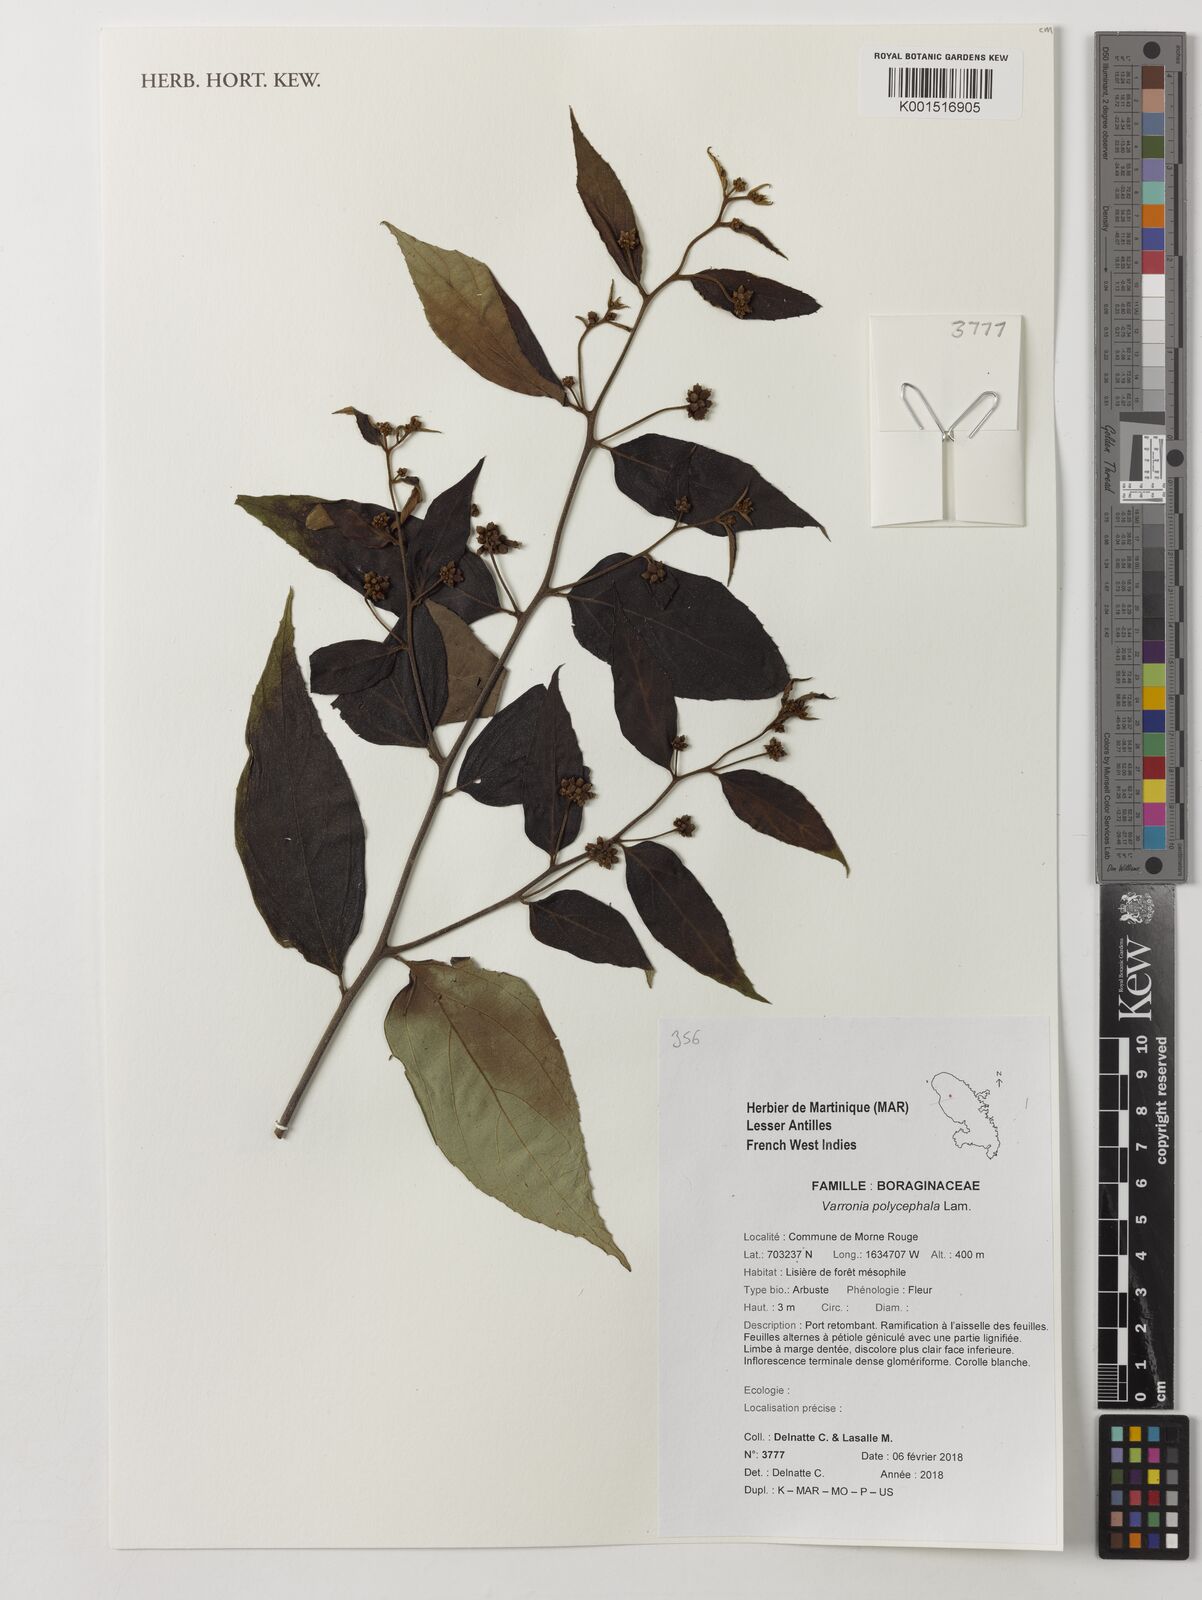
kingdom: Plantae
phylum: Tracheophyta
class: Magnoliopsida
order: Boraginales
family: Cordiaceae
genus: Varronia
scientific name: Varronia polycephala
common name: Black-sage
